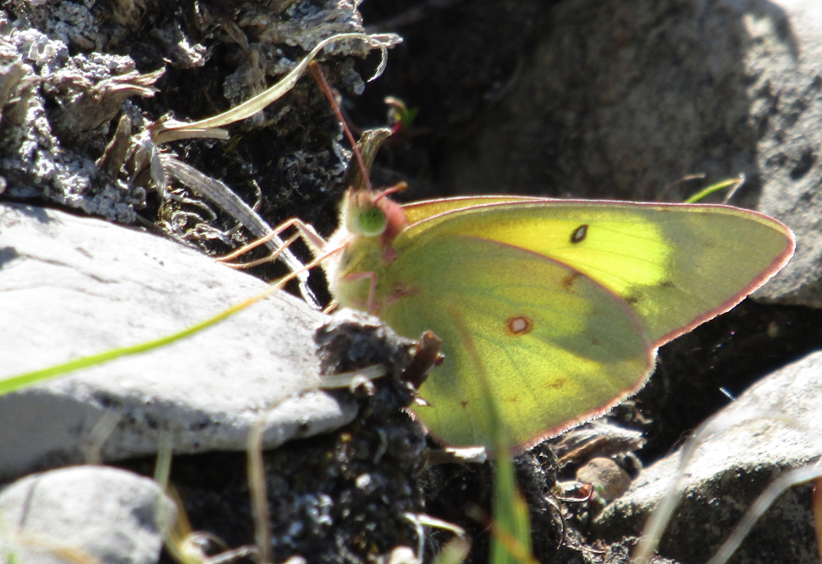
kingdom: Animalia
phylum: Arthropoda
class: Insecta
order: Lepidoptera
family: Pieridae
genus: Colias
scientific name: Colias philodice
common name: Clouded Sulphur
